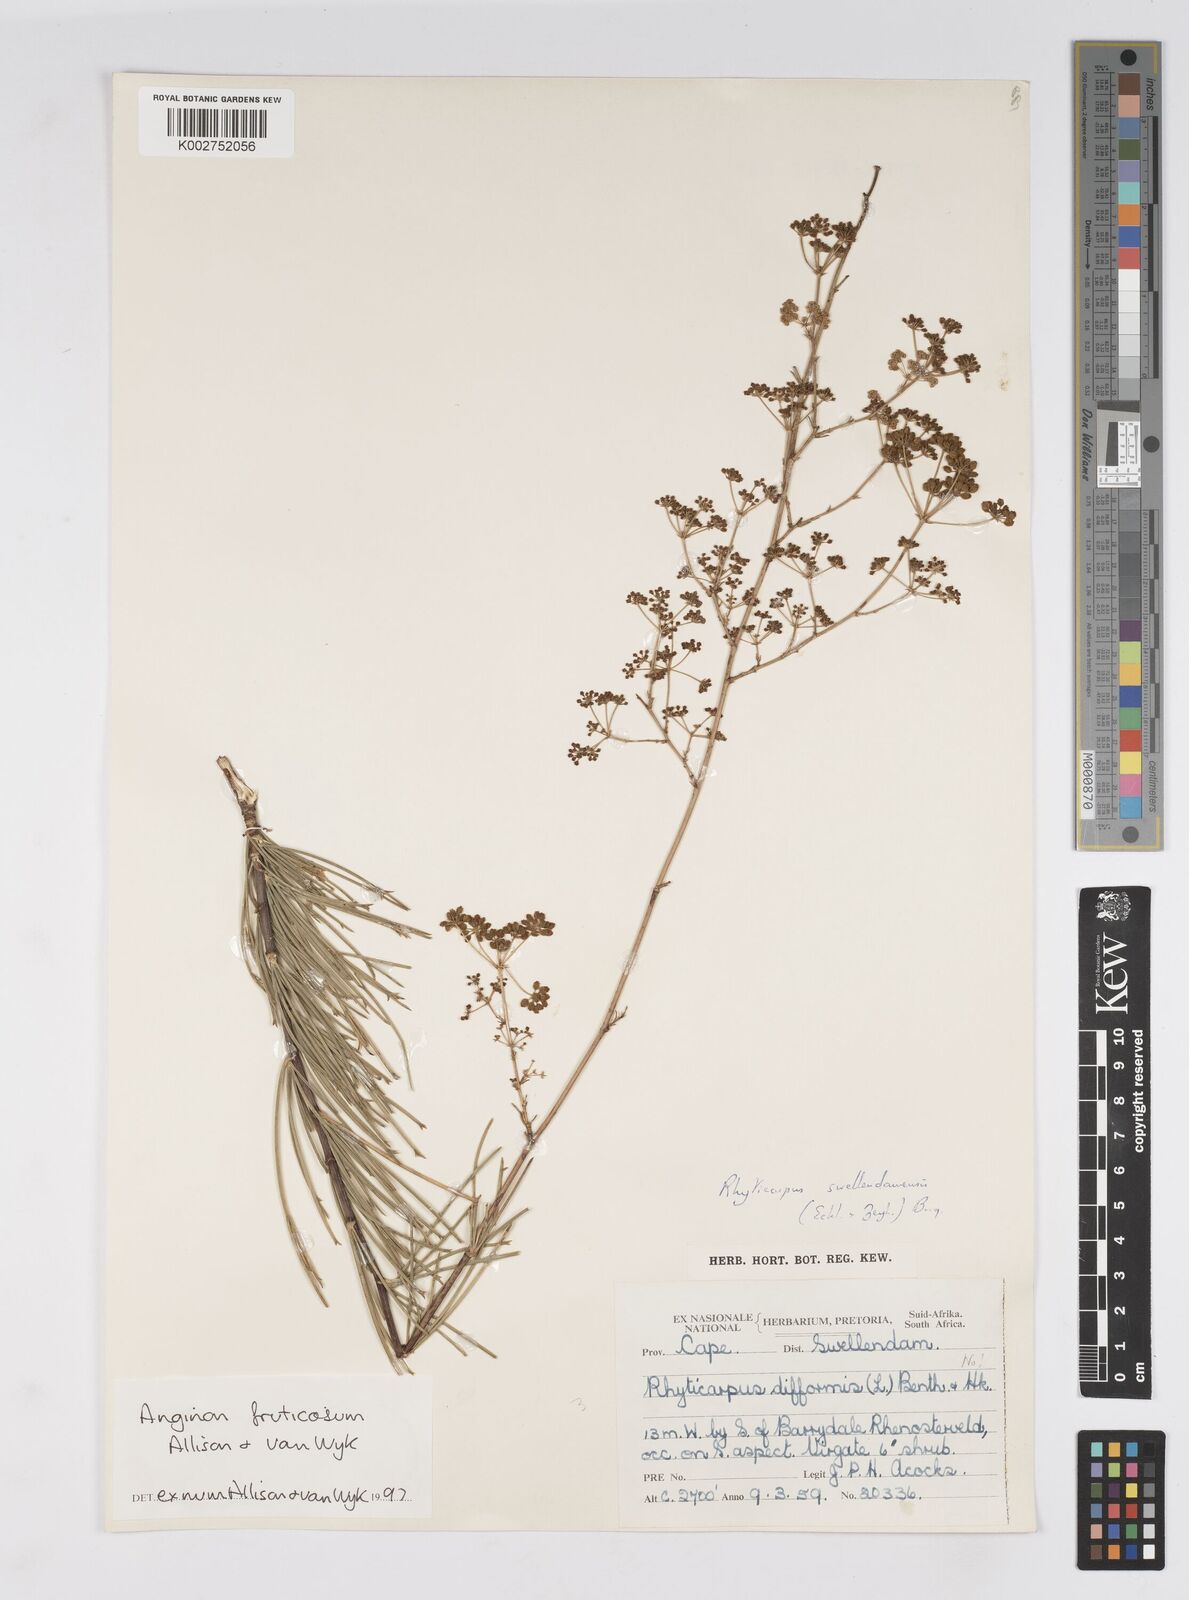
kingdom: Plantae
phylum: Tracheophyta
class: Magnoliopsida
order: Apiales
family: Apiaceae
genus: Anginon
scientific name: Anginon fruticosum
